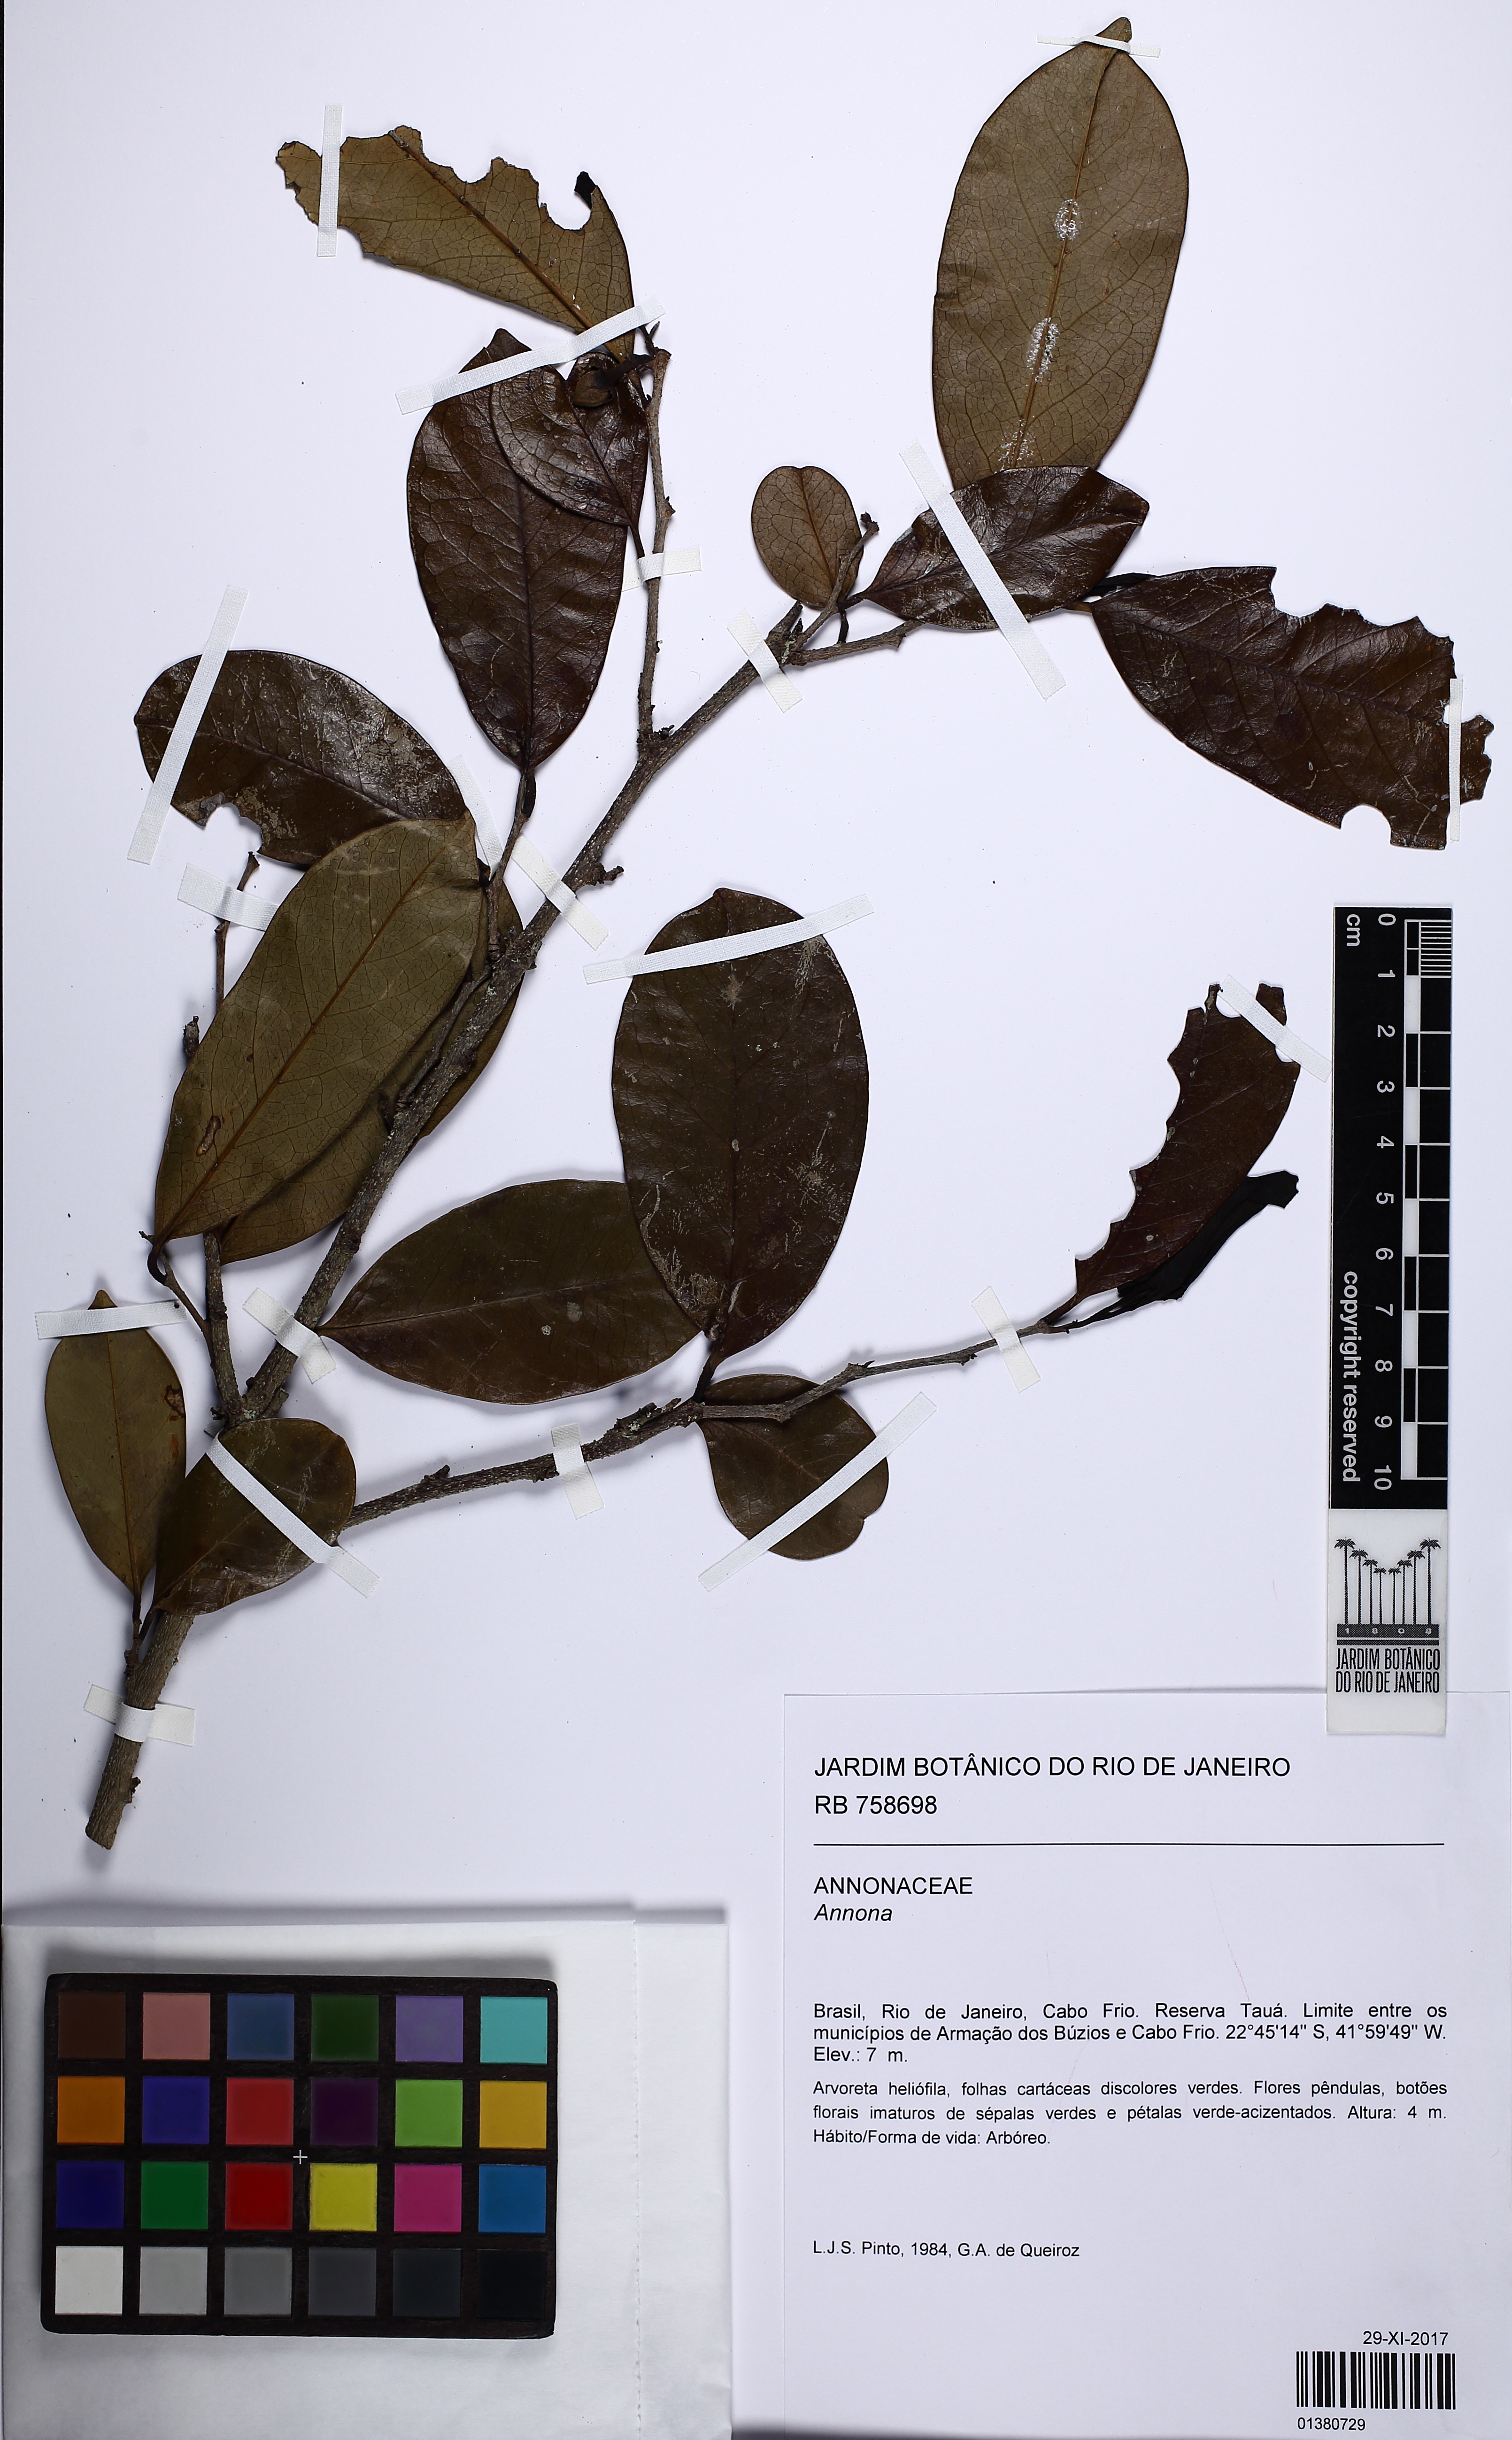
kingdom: Plantae
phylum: Tracheophyta
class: Magnoliopsida
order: Magnoliales
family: Annonaceae
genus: Annona
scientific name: Annona
